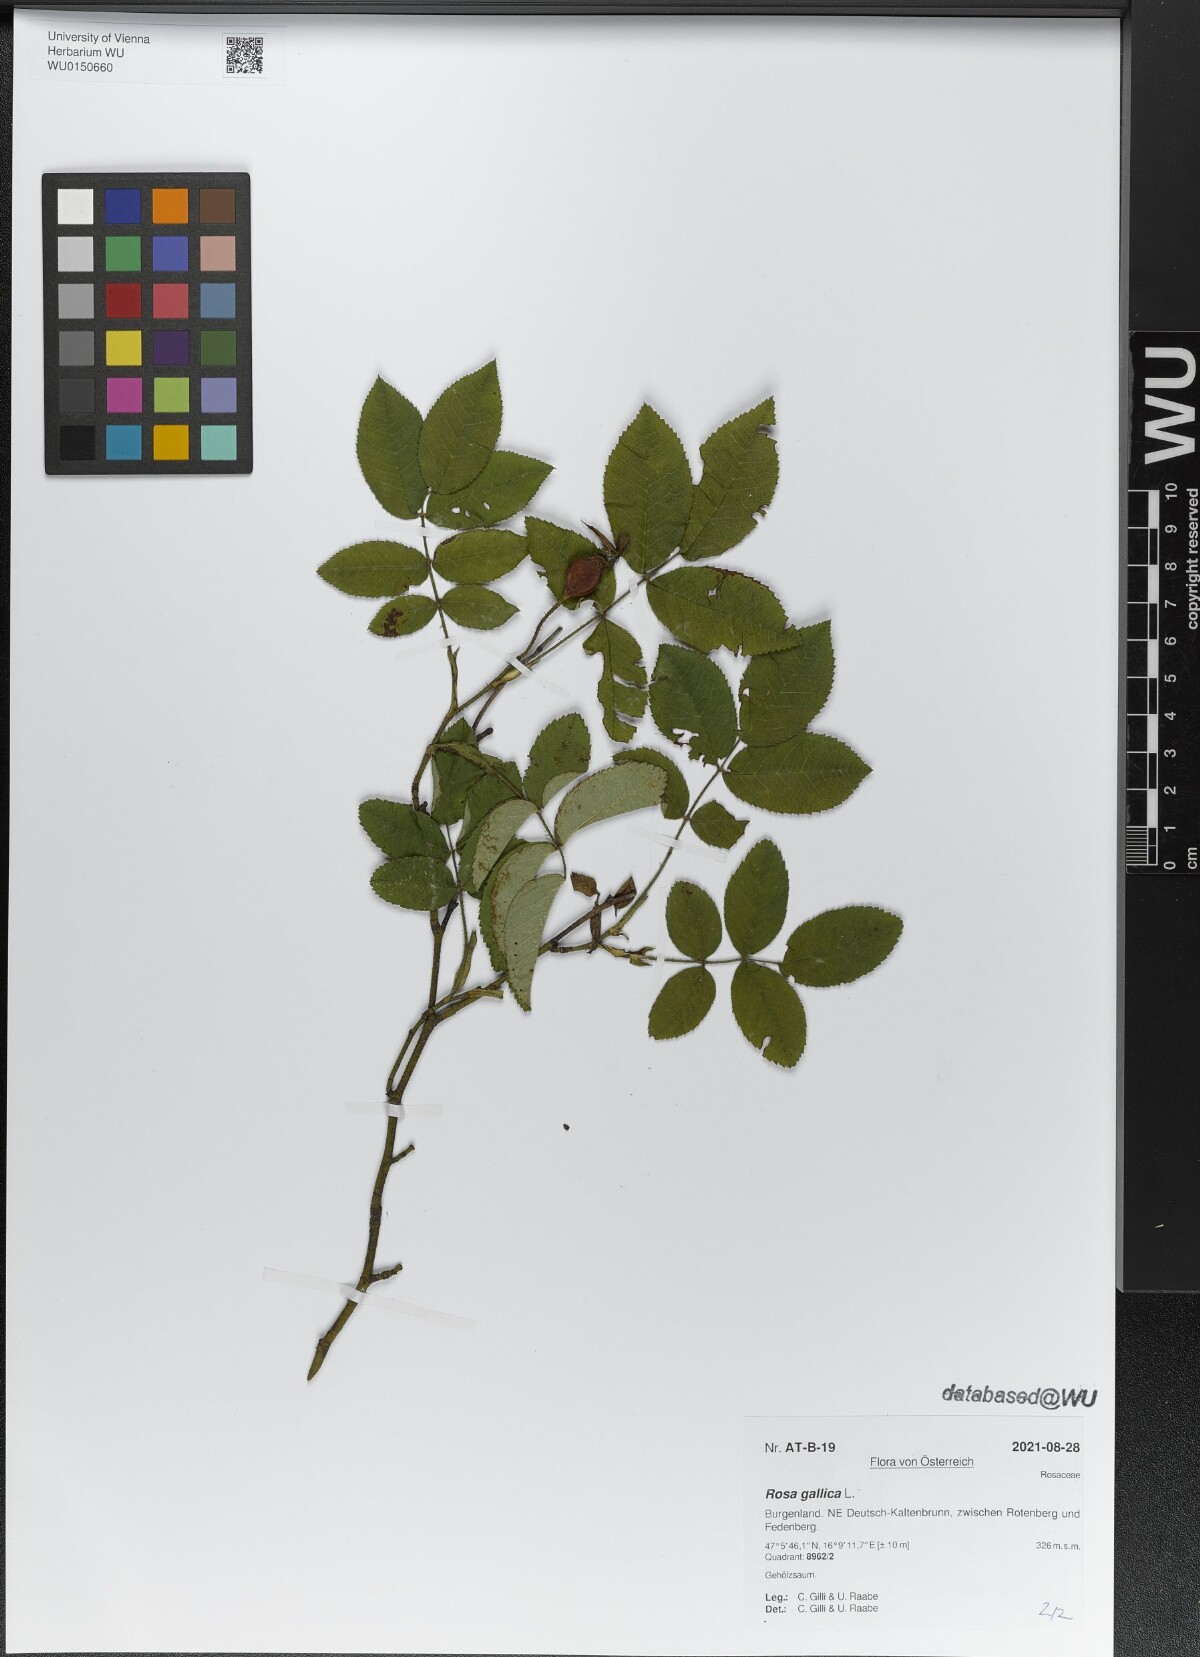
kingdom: Plantae
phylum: Tracheophyta
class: Magnoliopsida
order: Rosales
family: Rosaceae
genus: Rosa
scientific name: Rosa gallica
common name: French rose
